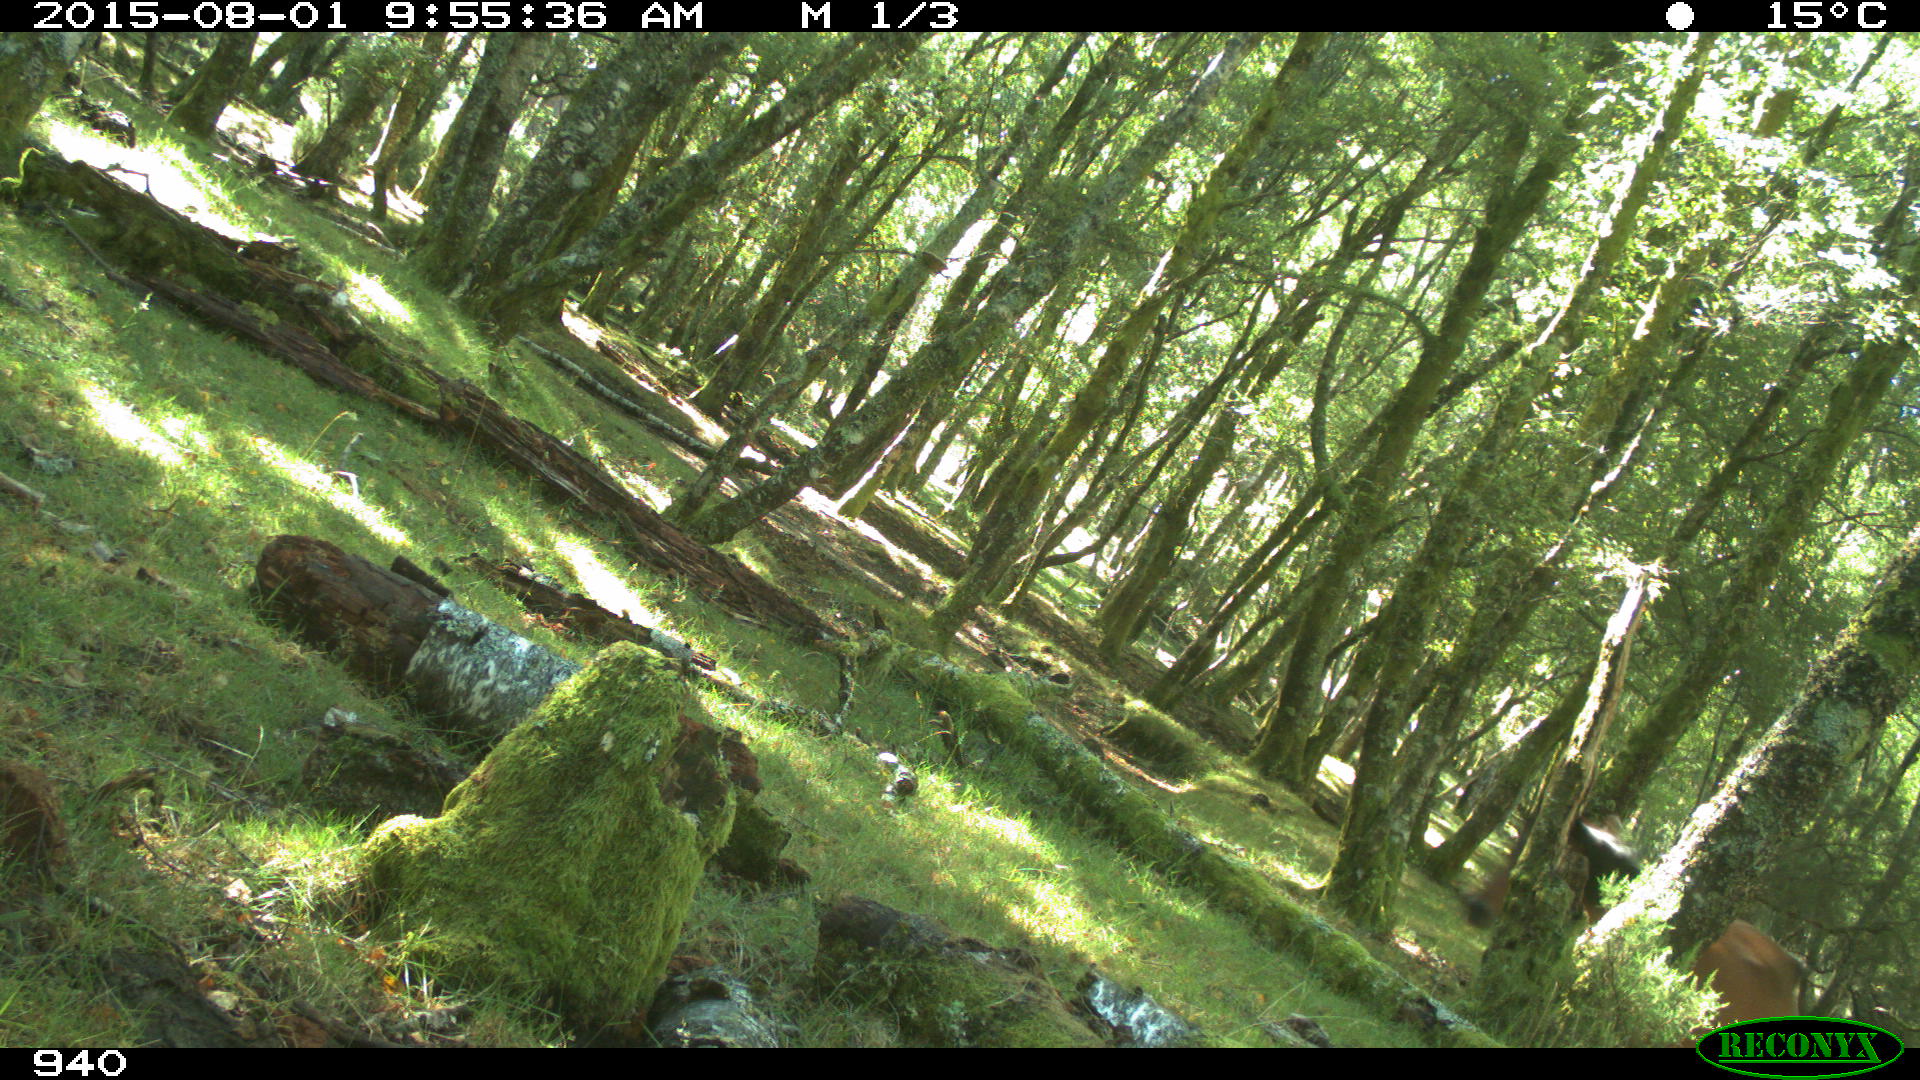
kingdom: Animalia
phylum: Chordata
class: Mammalia
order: Perissodactyla
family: Equidae
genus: Equus
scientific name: Equus caballus
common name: Horse
